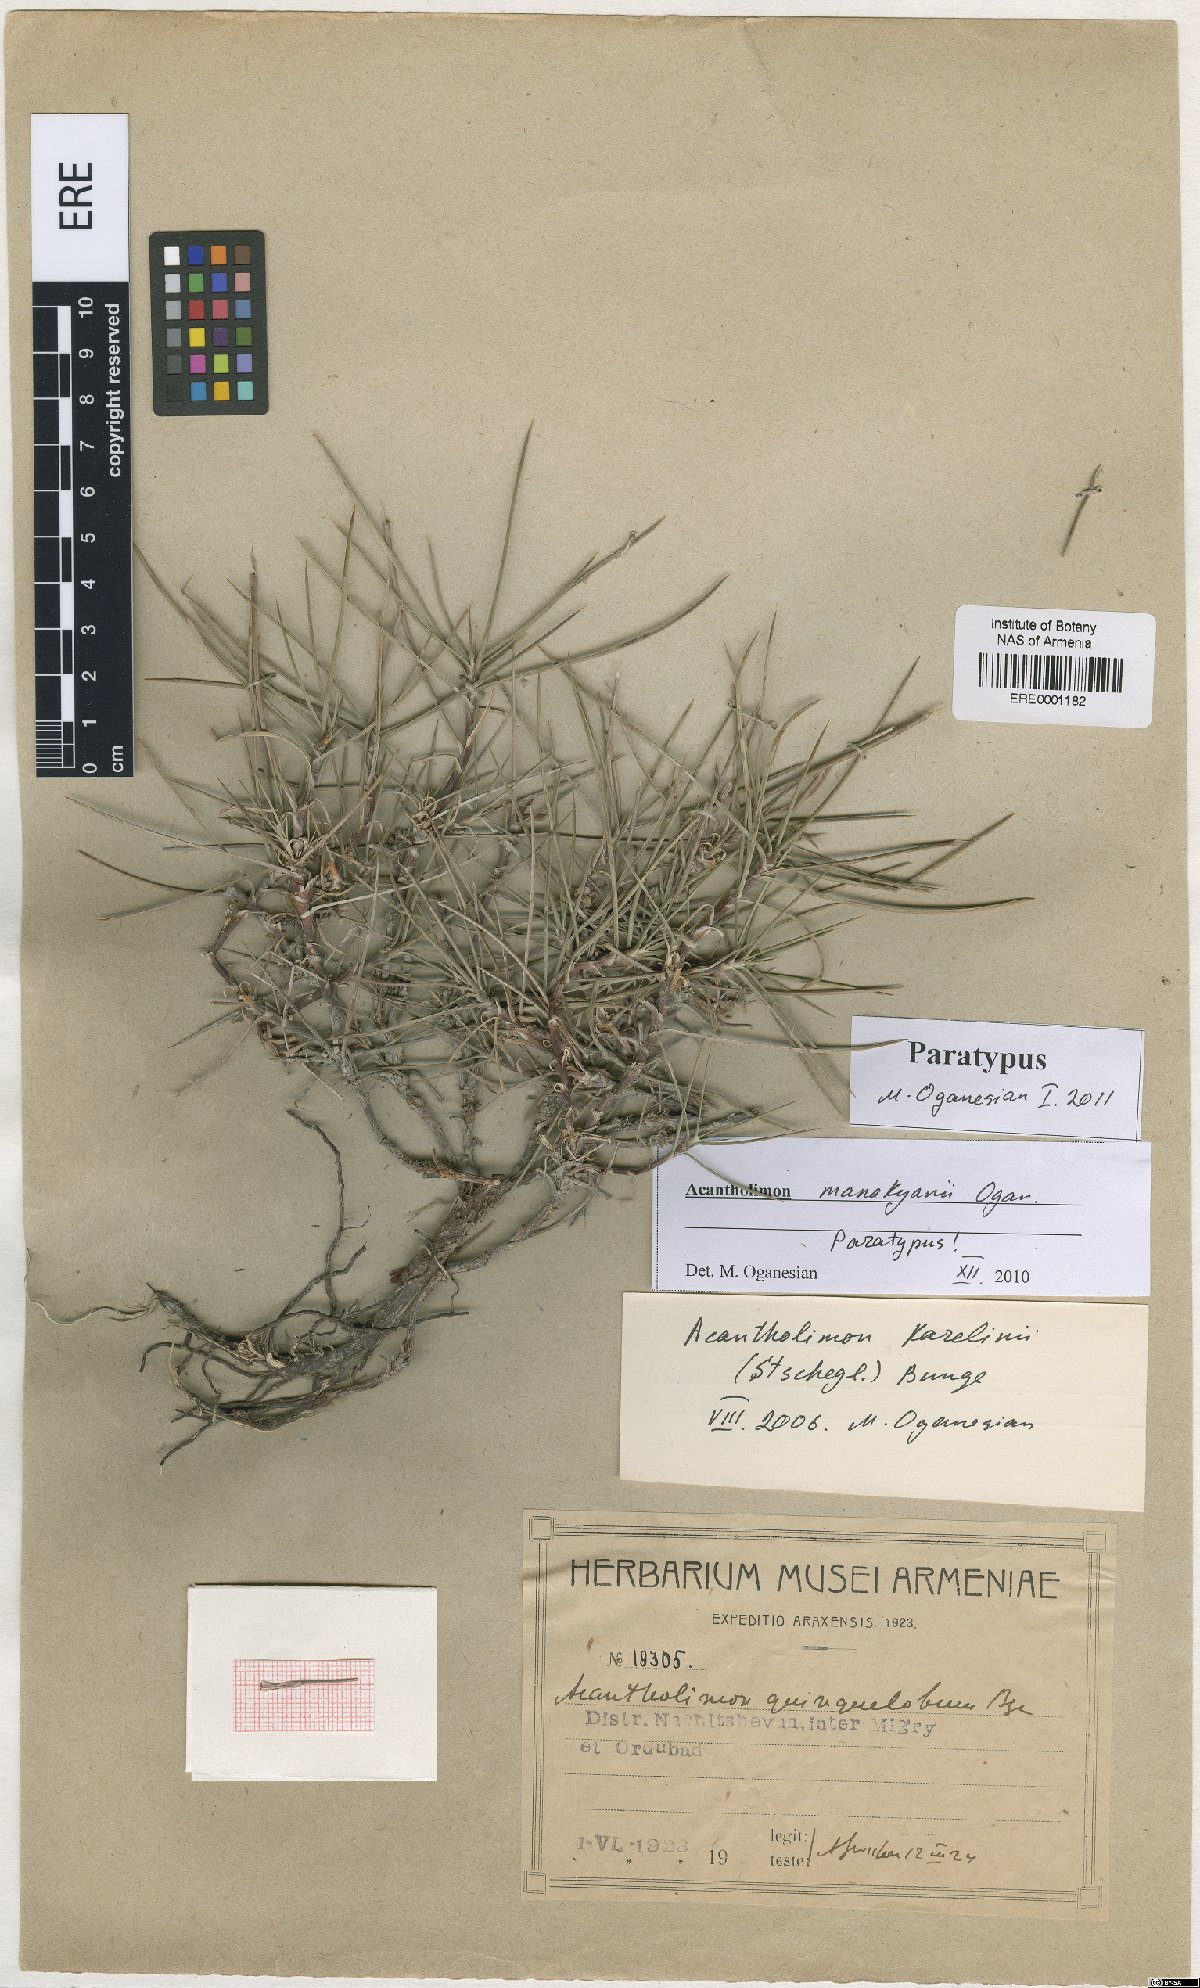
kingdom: Plantae
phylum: Tracheophyta
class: Magnoliopsida
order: Caryophyllales
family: Plumbaginaceae
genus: Acantholimon
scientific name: Acantholimon manakyanii
